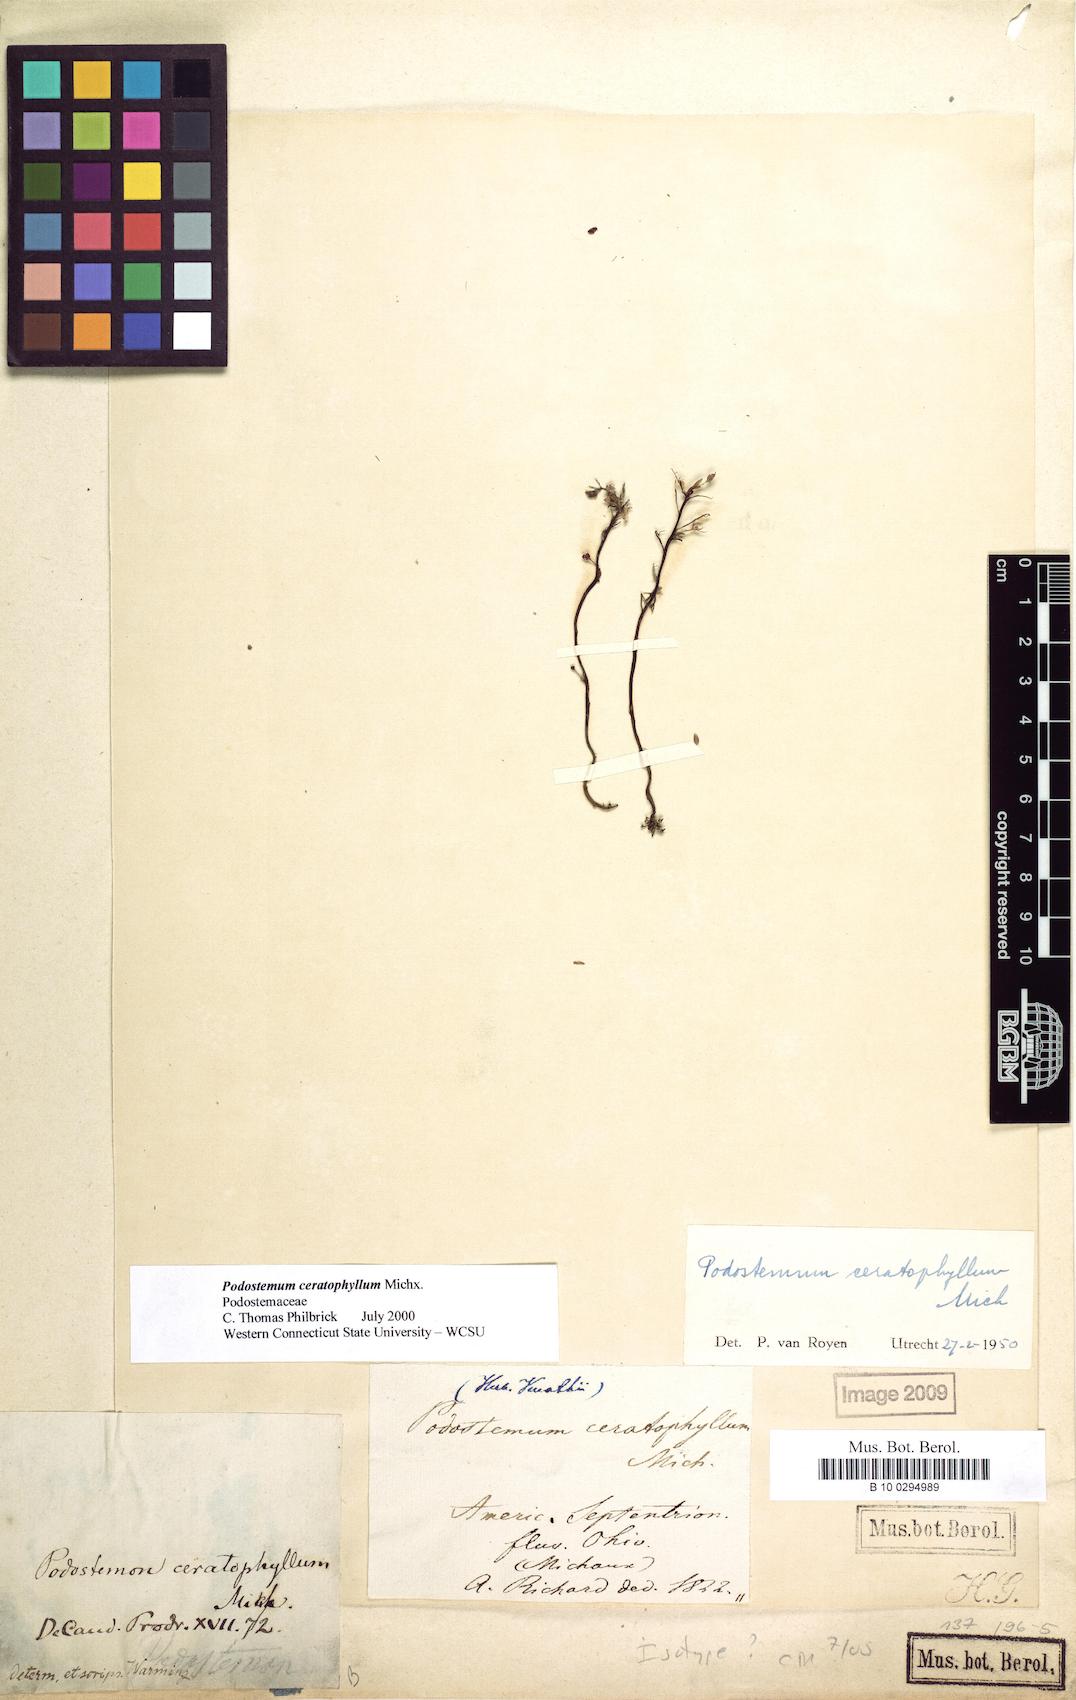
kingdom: Plantae
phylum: Tracheophyta
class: Magnoliopsida
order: Malpighiales
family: Podostemaceae
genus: Podostemum
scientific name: Podostemum ceratophyllum
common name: Horn-leaved riverweed
